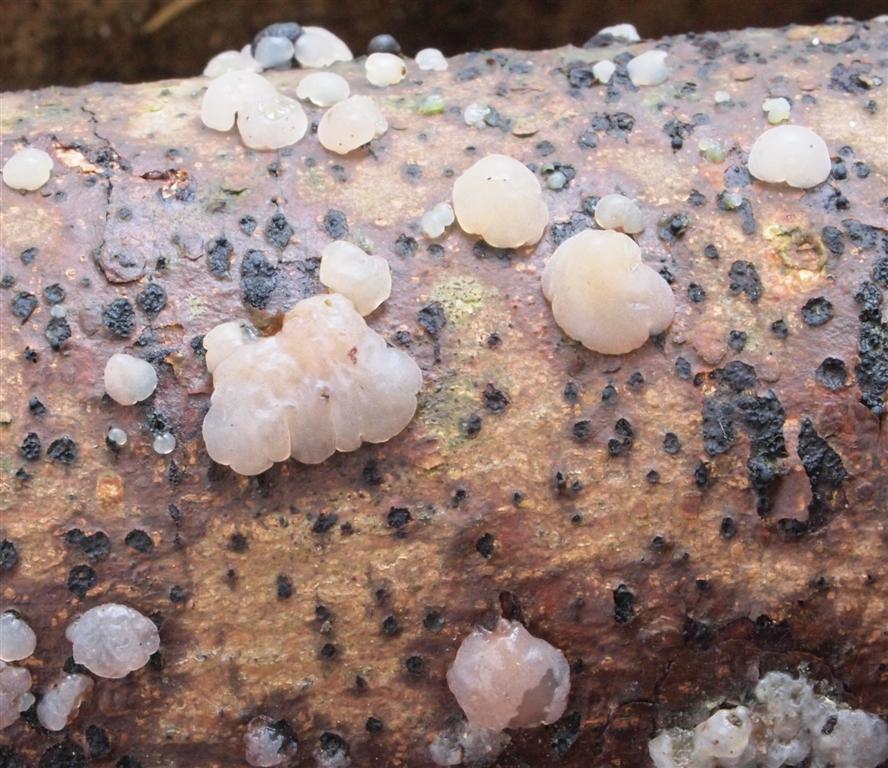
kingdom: Fungi
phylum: Basidiomycota
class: Agaricomycetes
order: Auriculariales
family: Hyaloriaceae
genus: Myxarium
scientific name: Myxarium nucleatum
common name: klar bævretop
